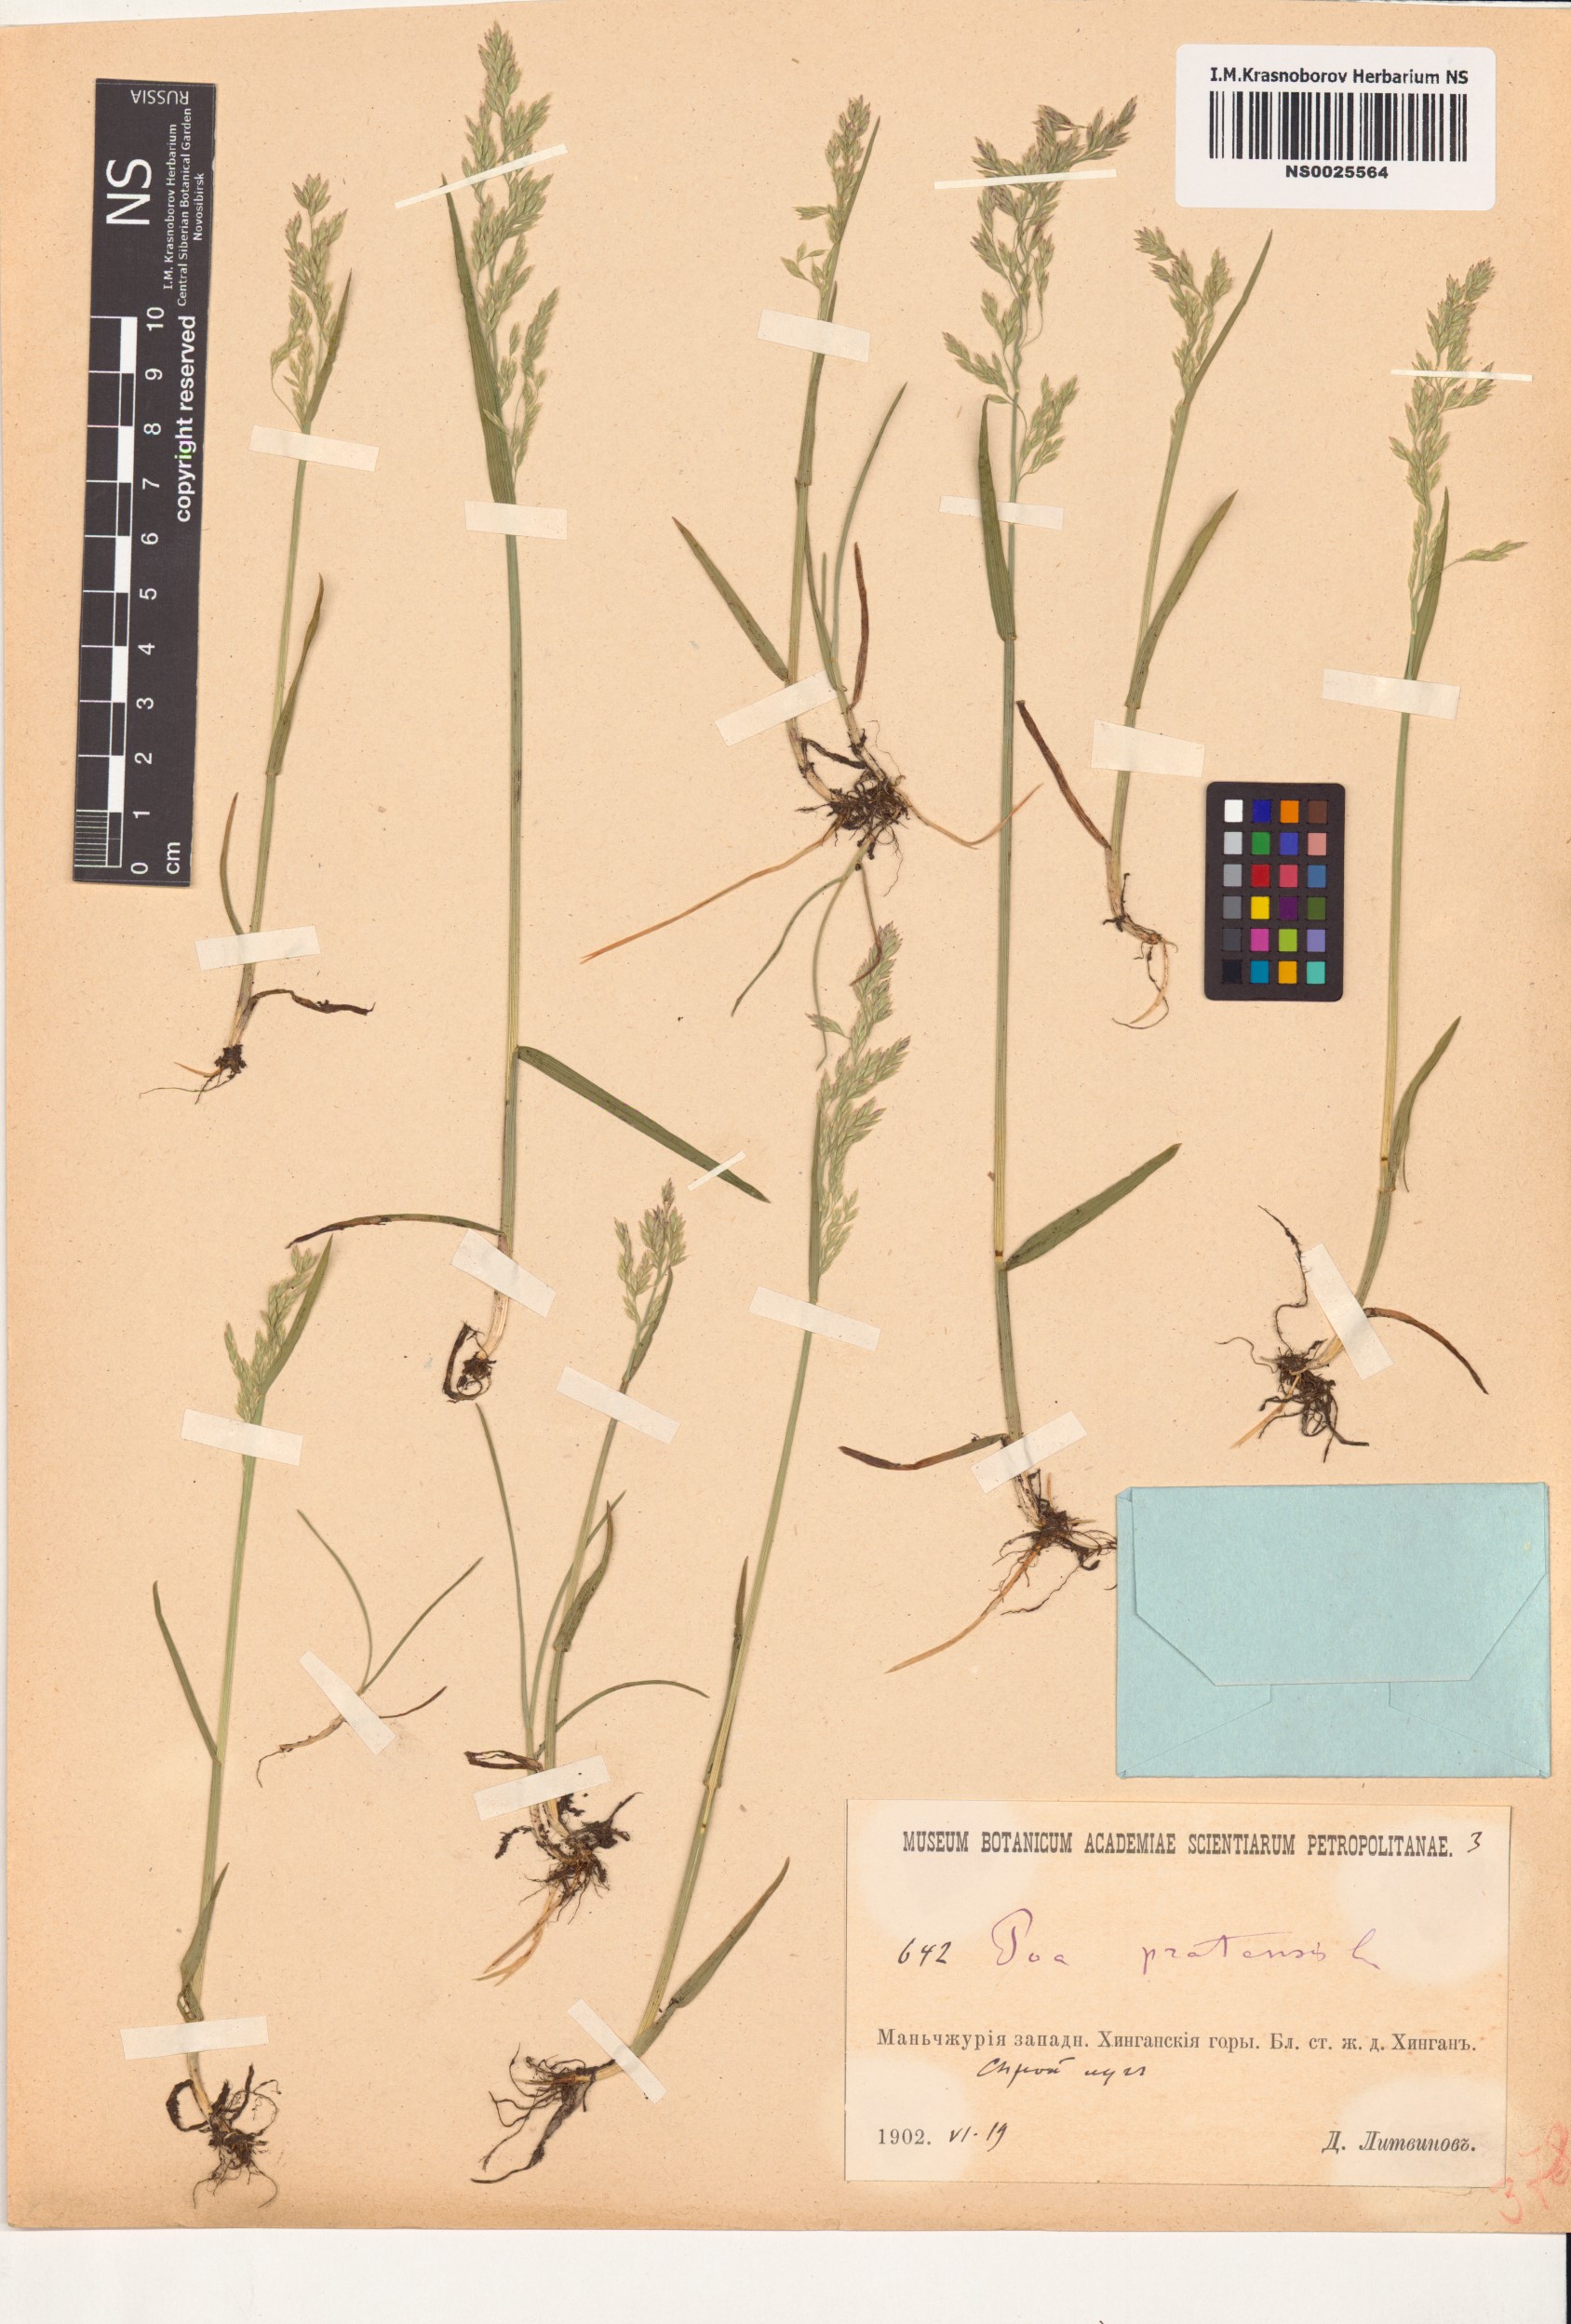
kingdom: Plantae
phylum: Tracheophyta
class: Liliopsida
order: Poales
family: Poaceae
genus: Poa
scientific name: Poa pratensis
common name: Kentucky bluegrass
